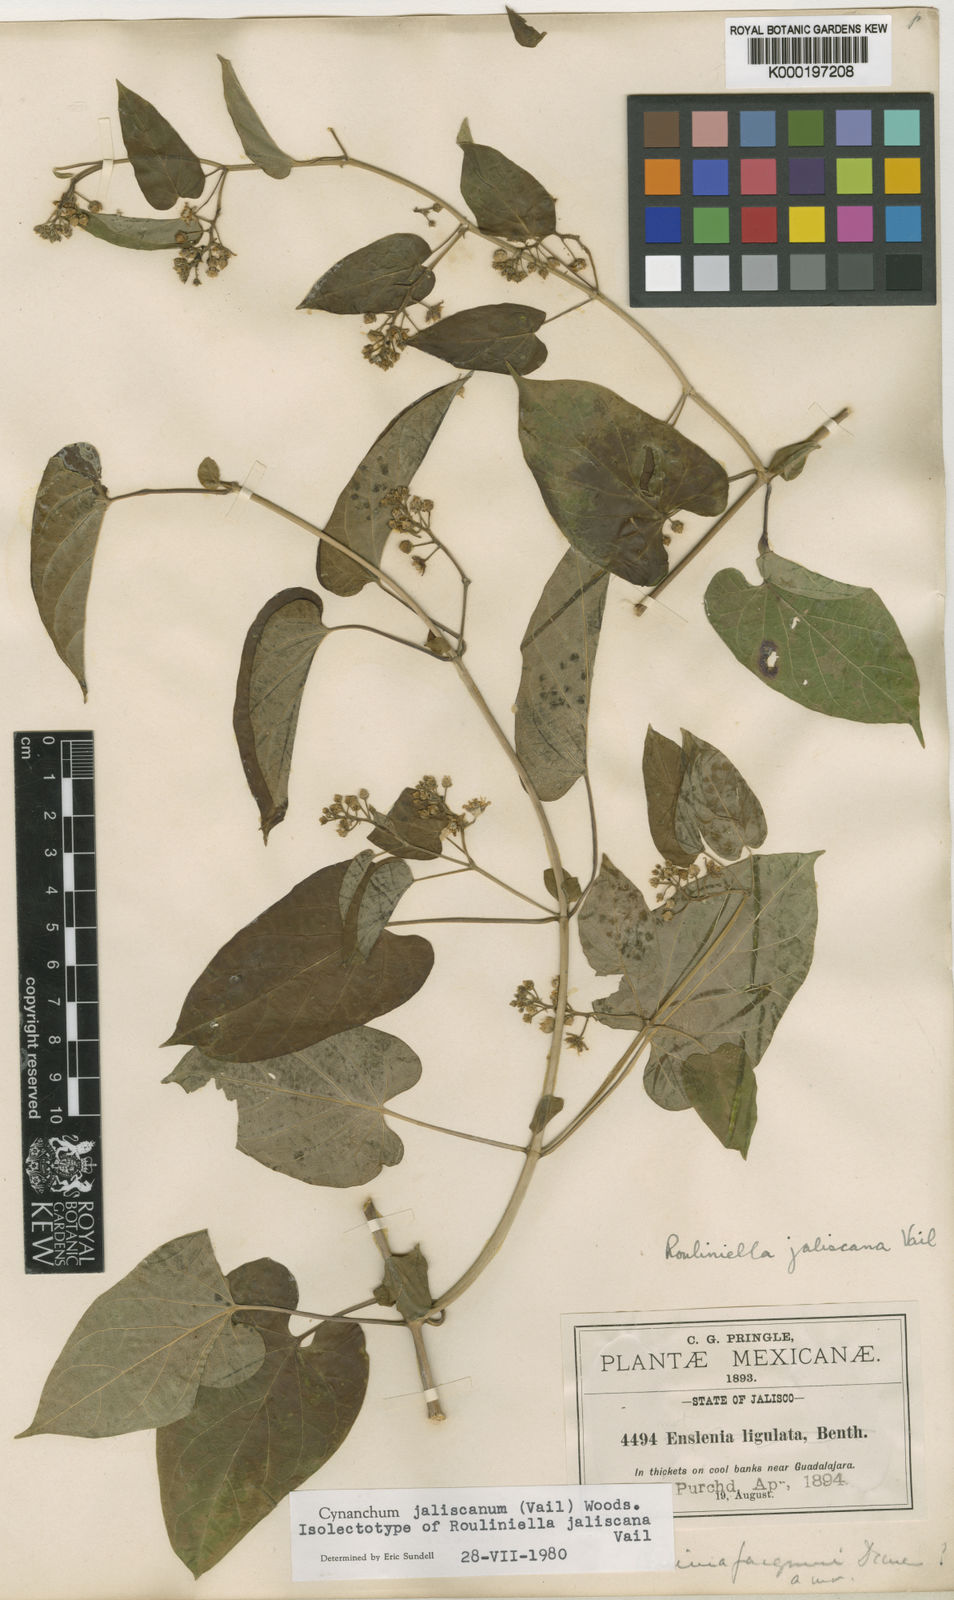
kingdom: Plantae
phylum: Tracheophyta
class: Magnoliopsida
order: Gentianales
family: Apocynaceae
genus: Cynanchum
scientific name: Cynanchum jaliscanum
